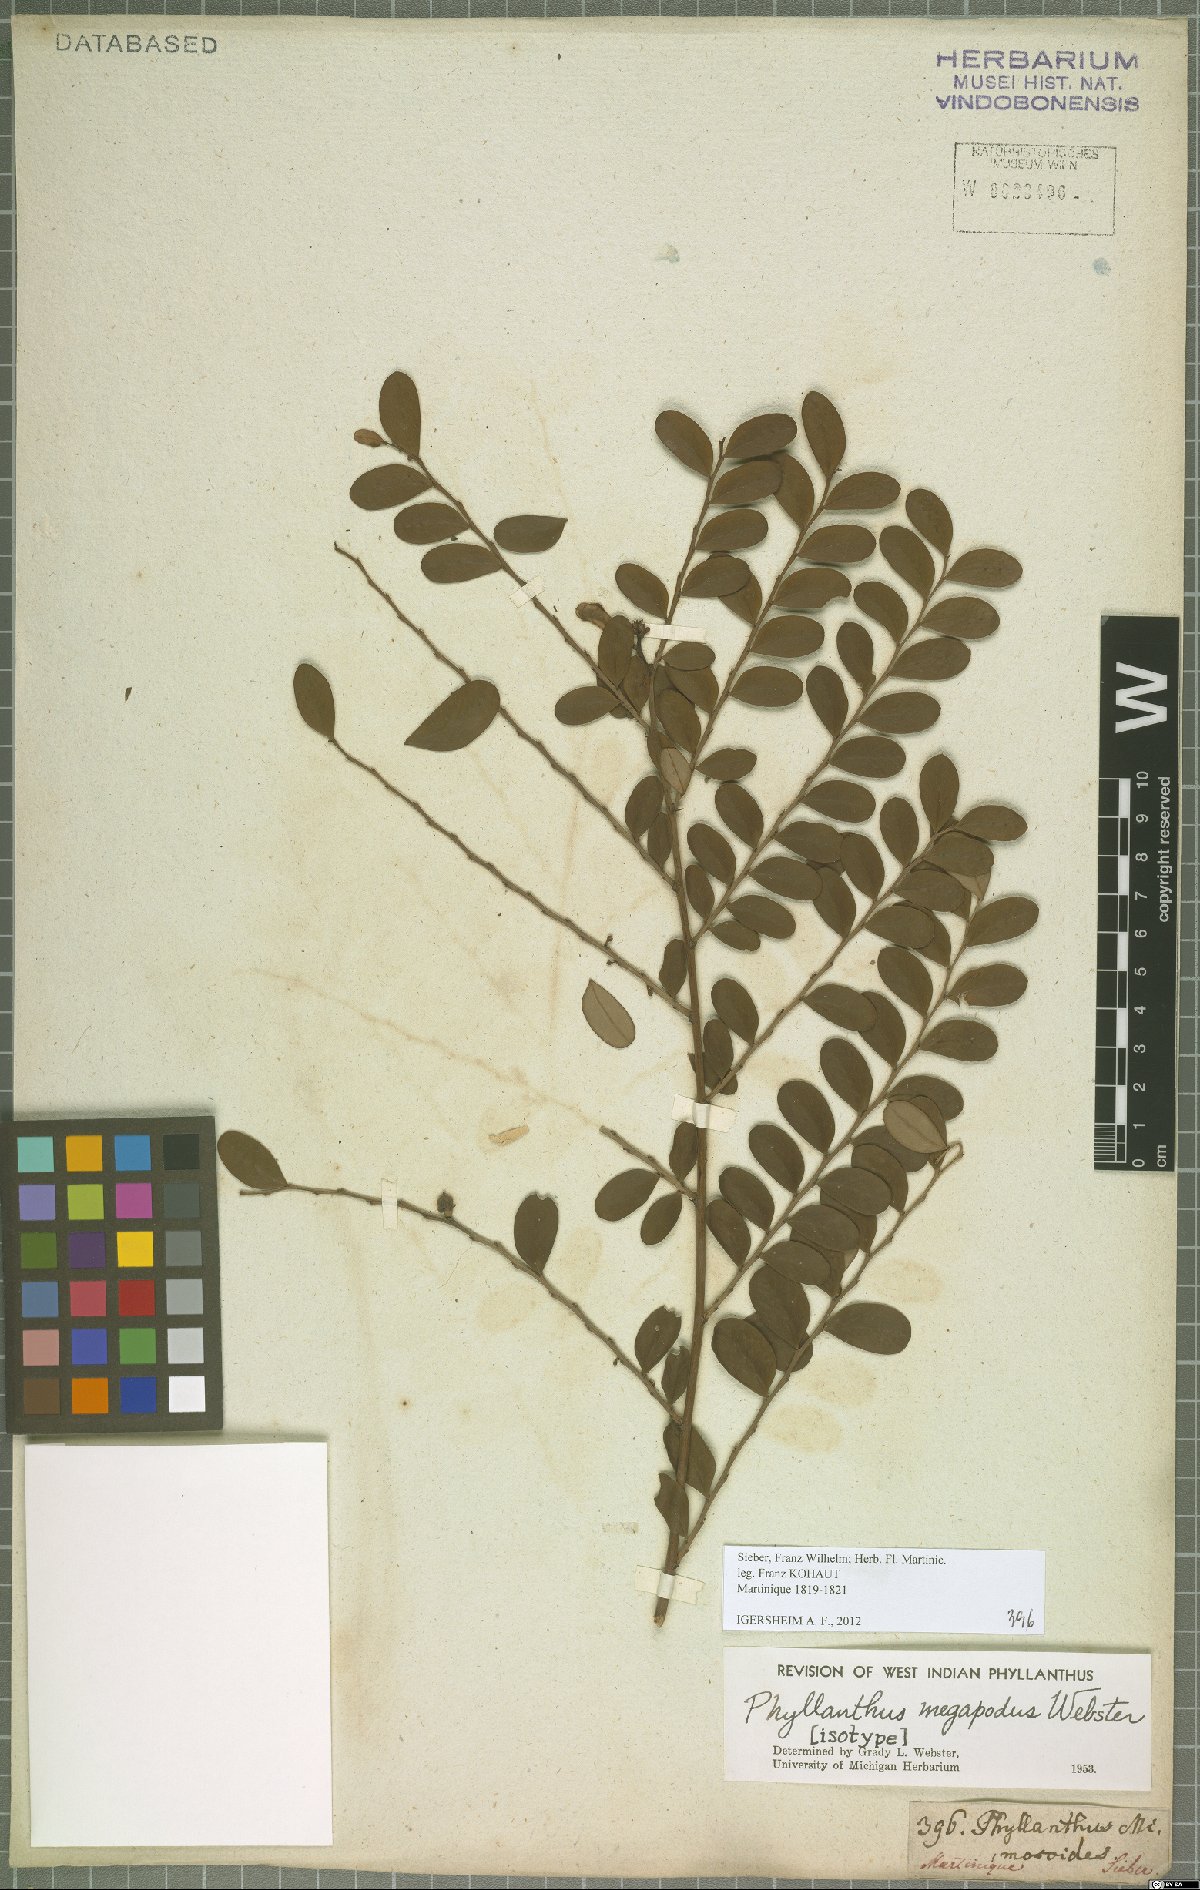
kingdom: Plantae
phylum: Tracheophyta
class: Magnoliopsida
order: Malpighiales
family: Phyllanthaceae
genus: Phyllanthus
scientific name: Phyllanthus megapodus
